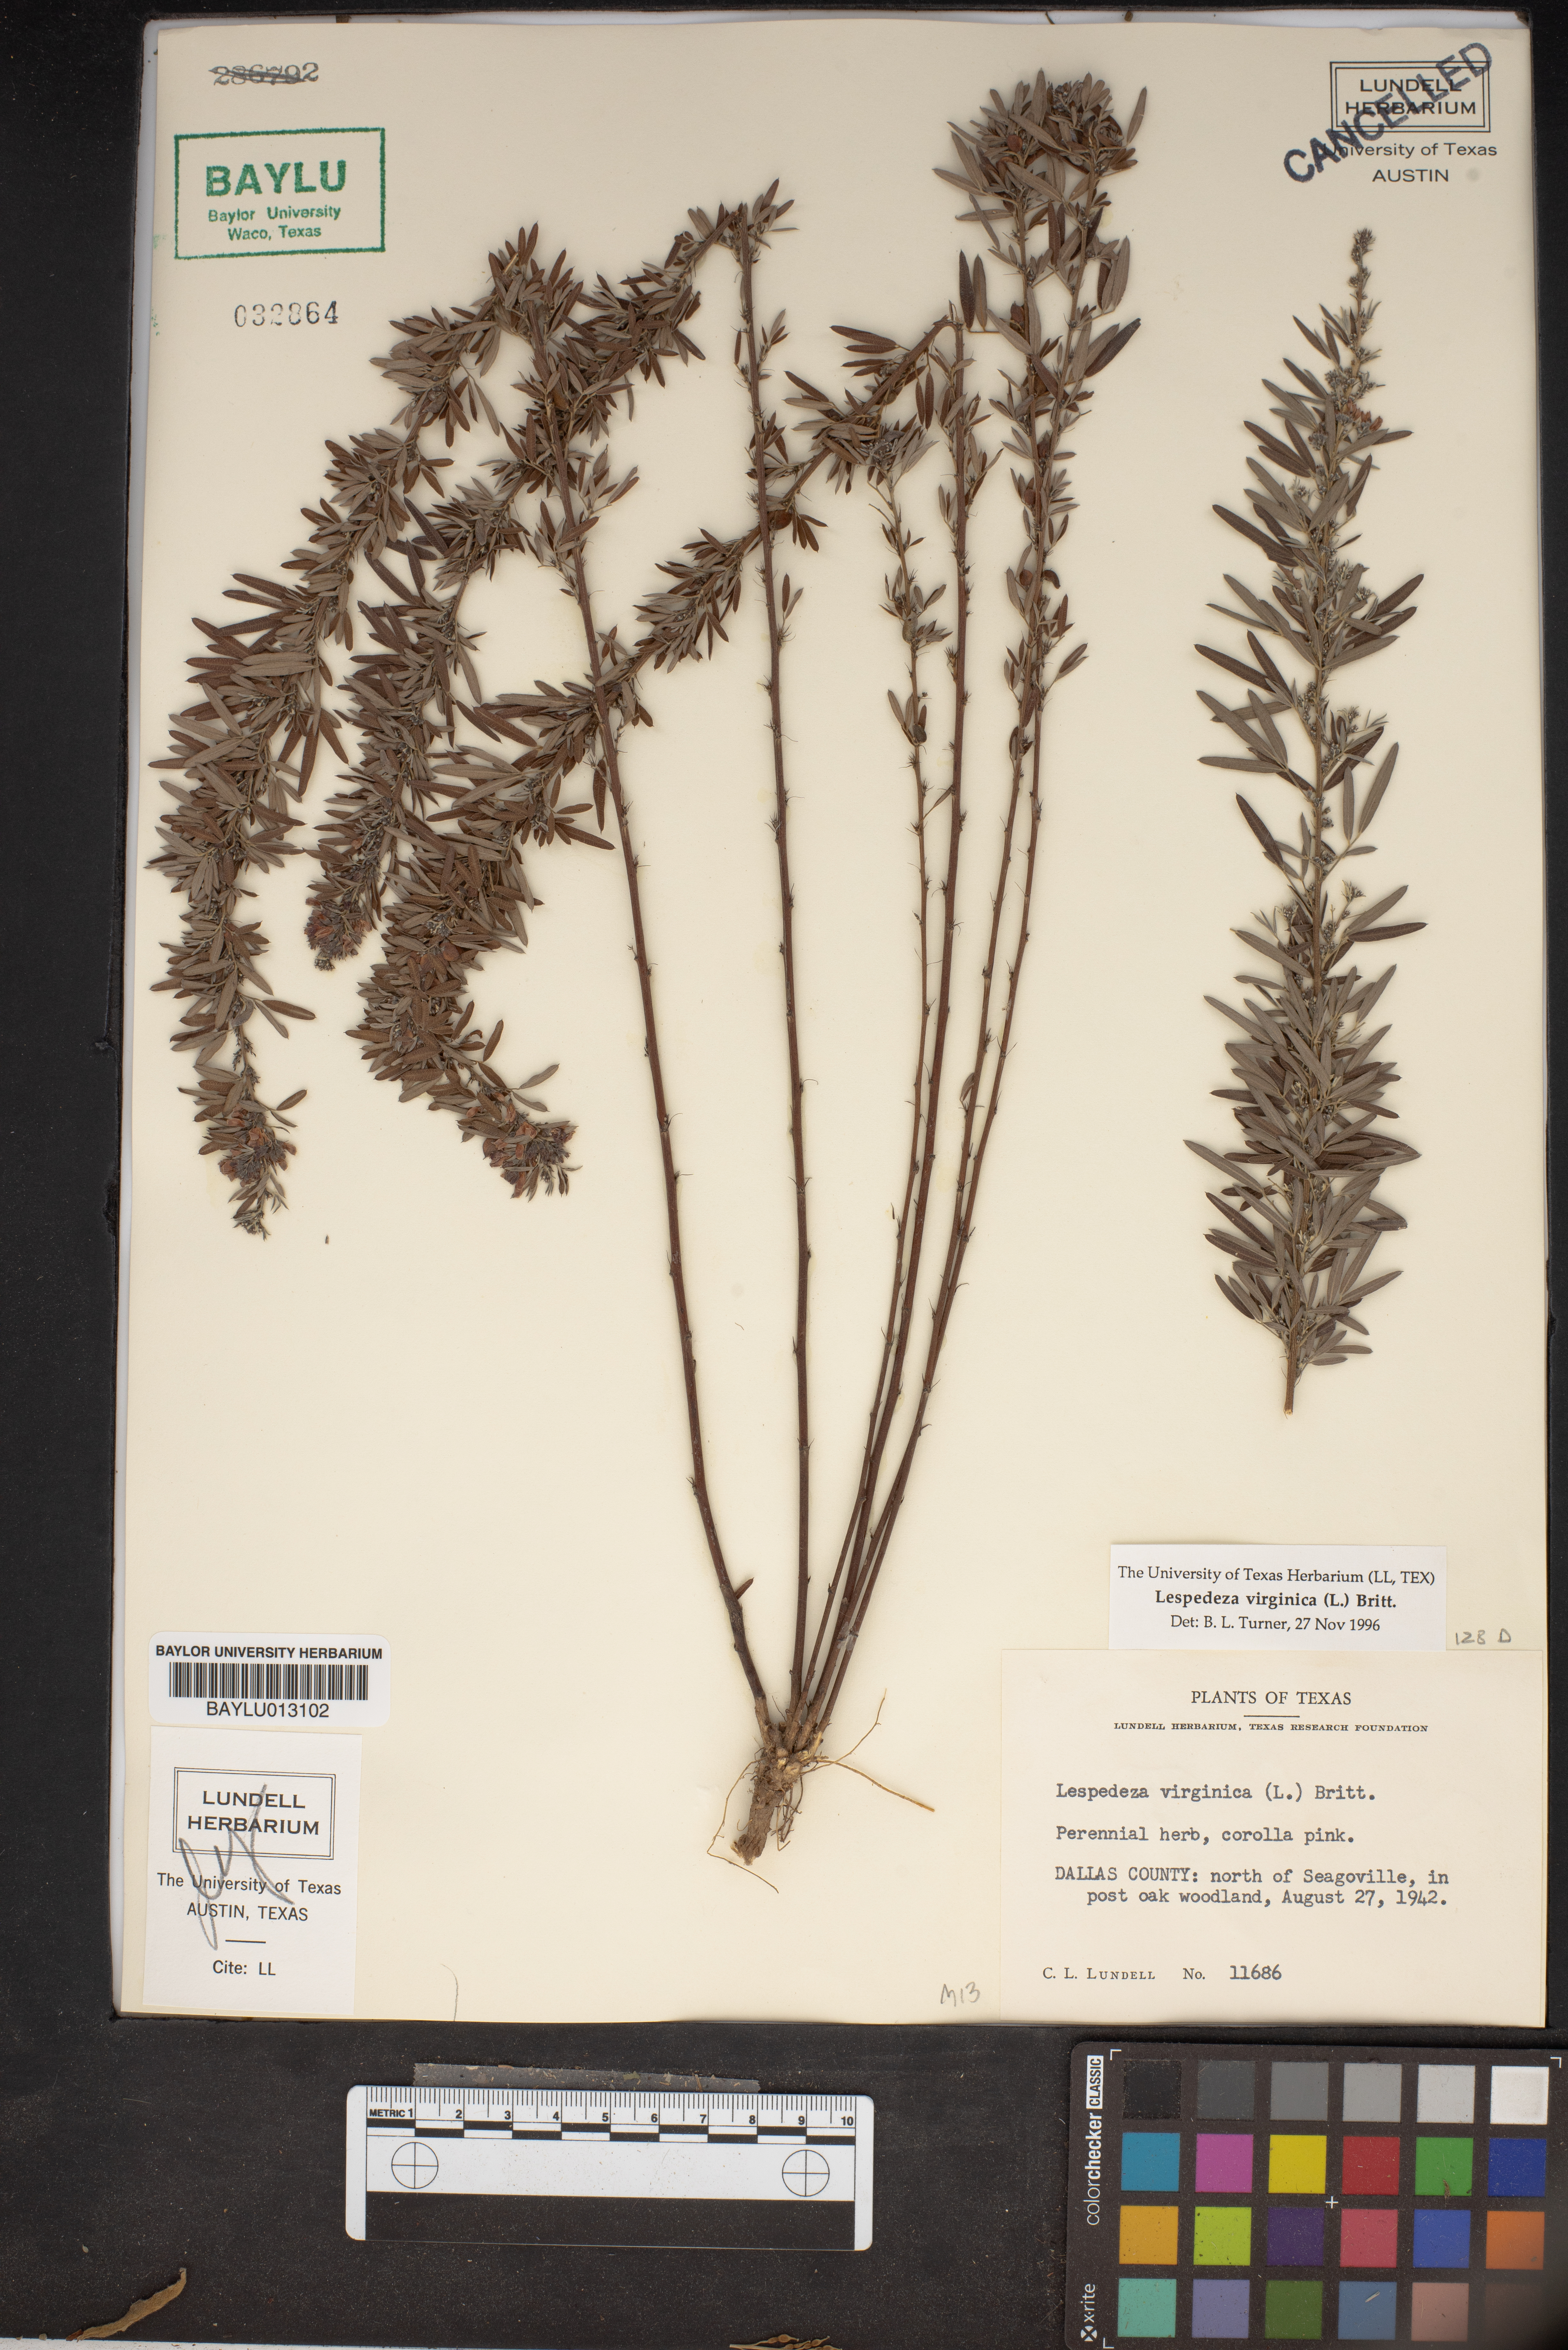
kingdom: Plantae
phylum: Tracheophyta
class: Magnoliopsida
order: Fabales
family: Fabaceae
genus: Lespedeza
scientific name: Lespedeza virginica
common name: Slender bush-clover
